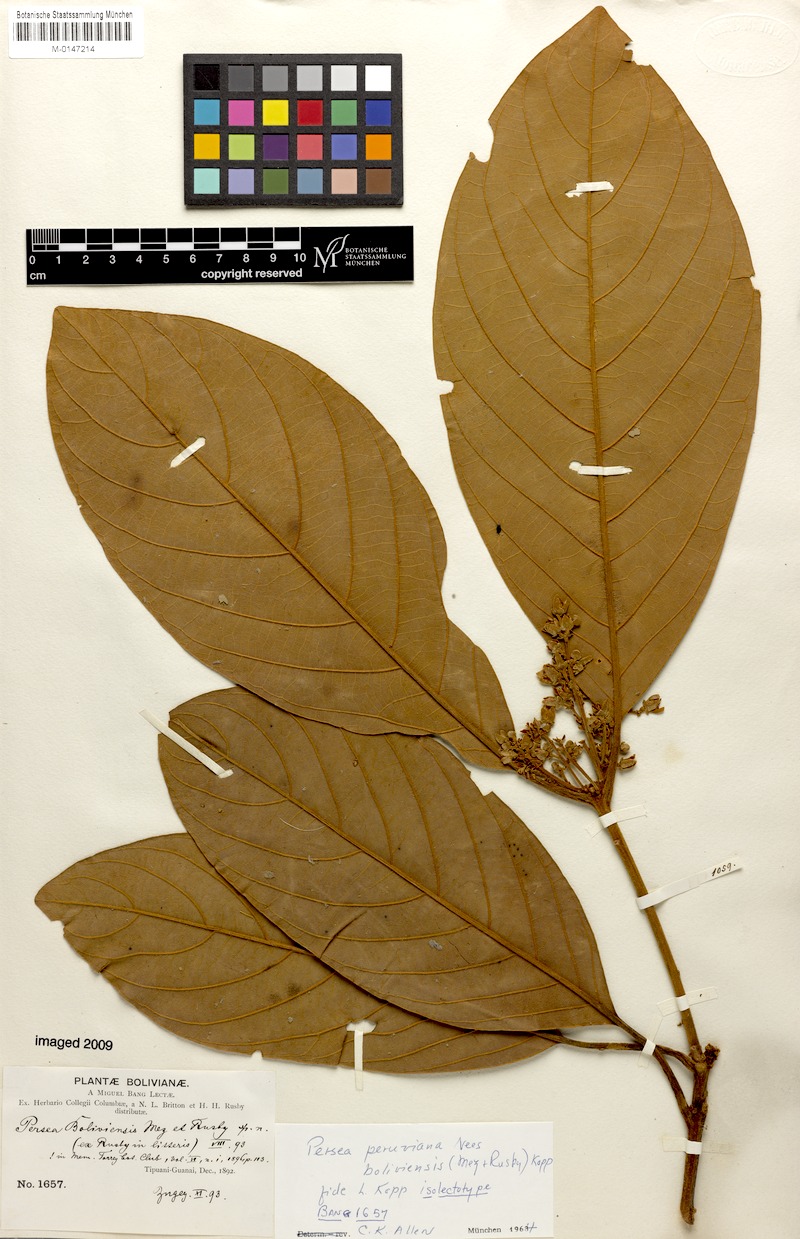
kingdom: Plantae
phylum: Tracheophyta
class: Magnoliopsida
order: Laurales
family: Lauraceae
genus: Persea
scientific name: Persea peruviana
